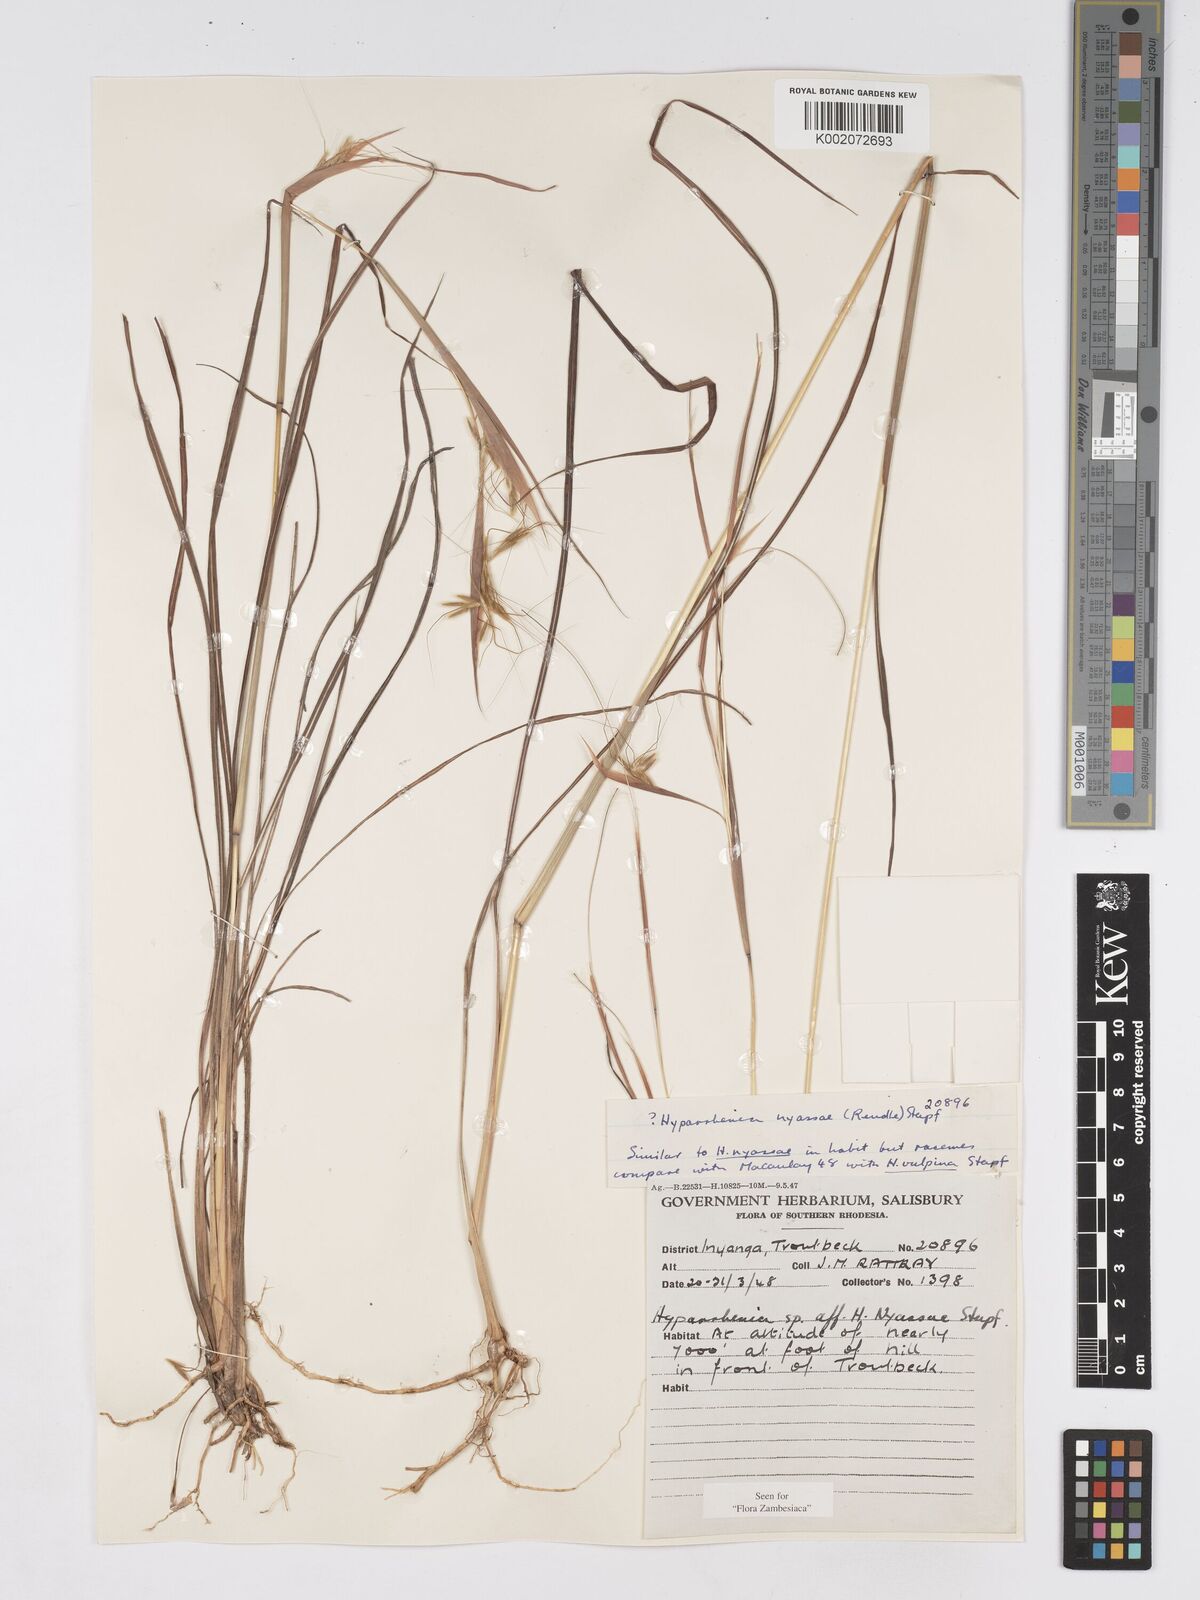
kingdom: Plantae
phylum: Tracheophyta
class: Liliopsida
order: Poales
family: Poaceae
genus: Hyparrhenia
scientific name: Hyparrhenia nyassae
